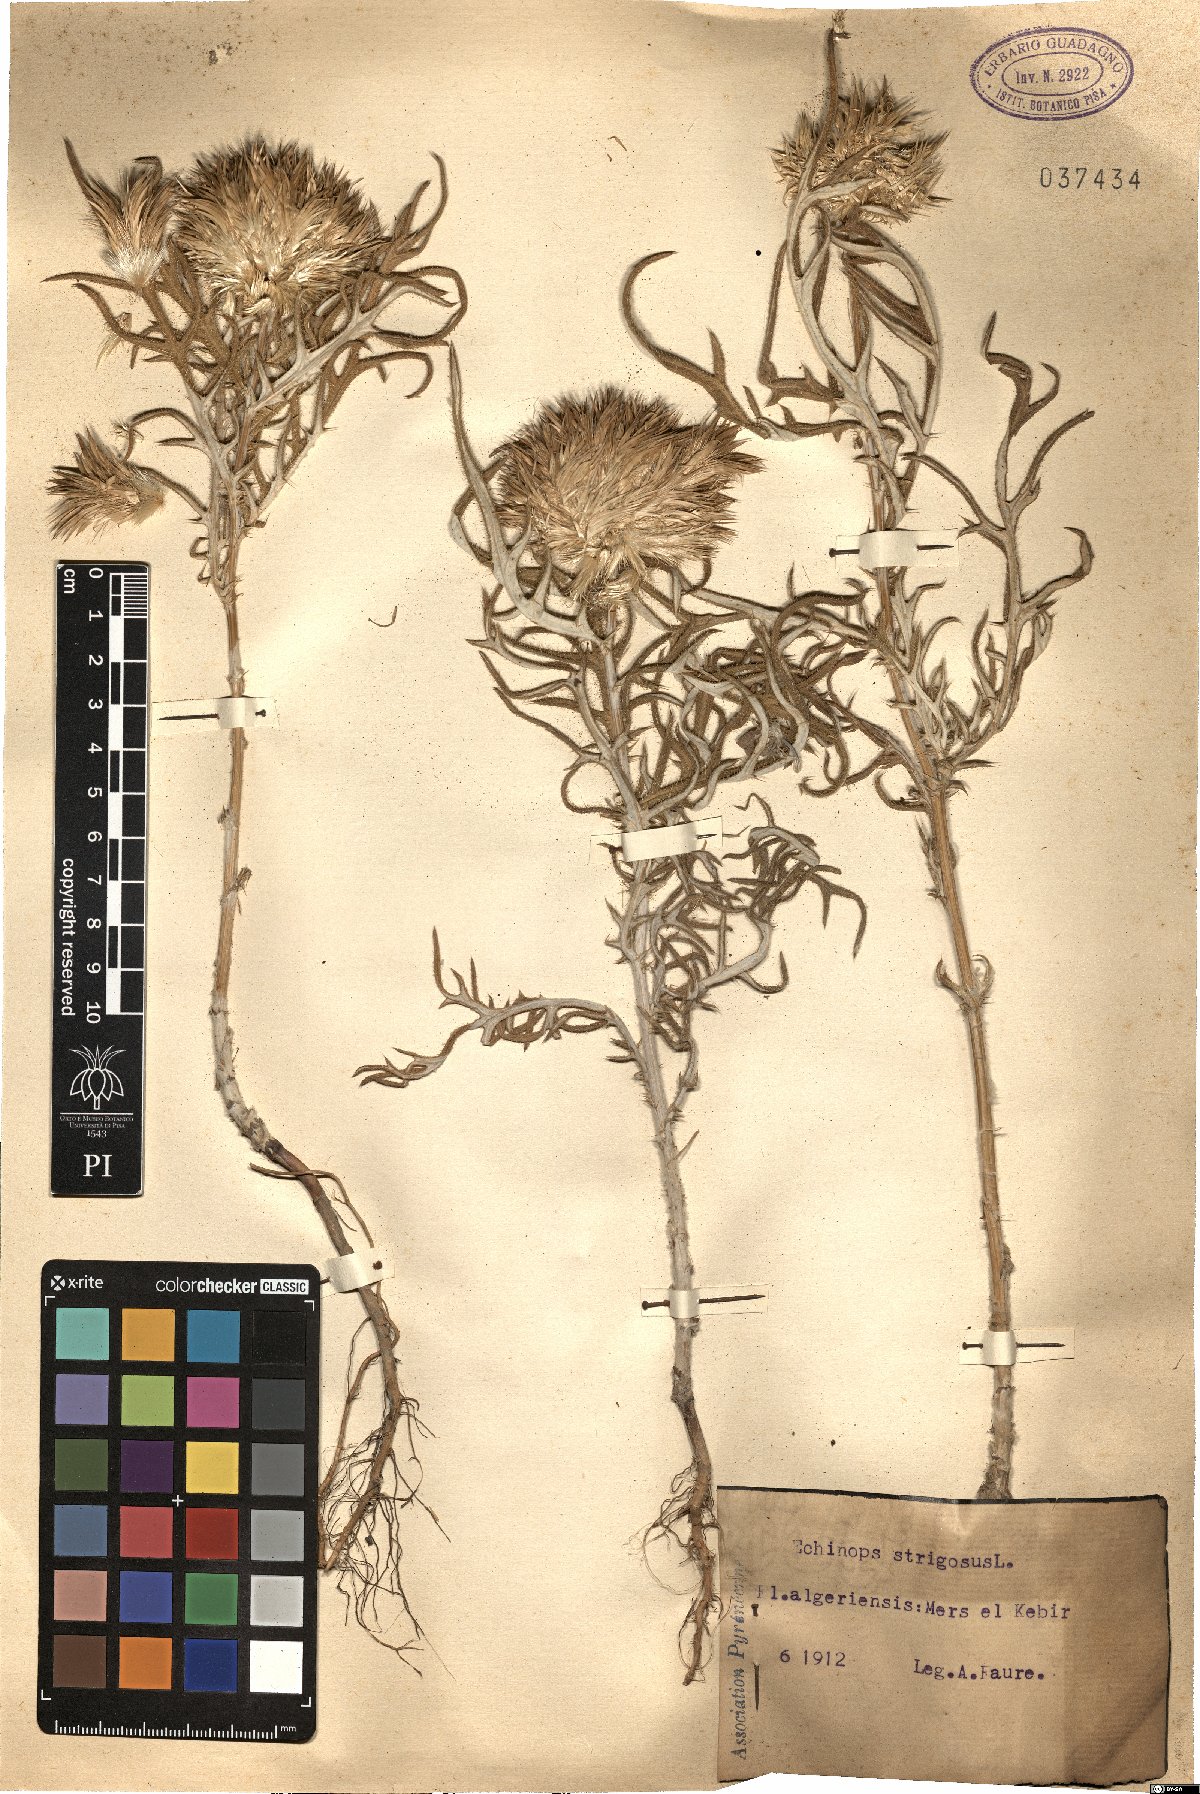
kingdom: Plantae
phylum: Tracheophyta
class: Magnoliopsida
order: Asterales
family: Asteraceae
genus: Echinops
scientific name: Echinops strigosus
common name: Rough-leaf globe thistle
